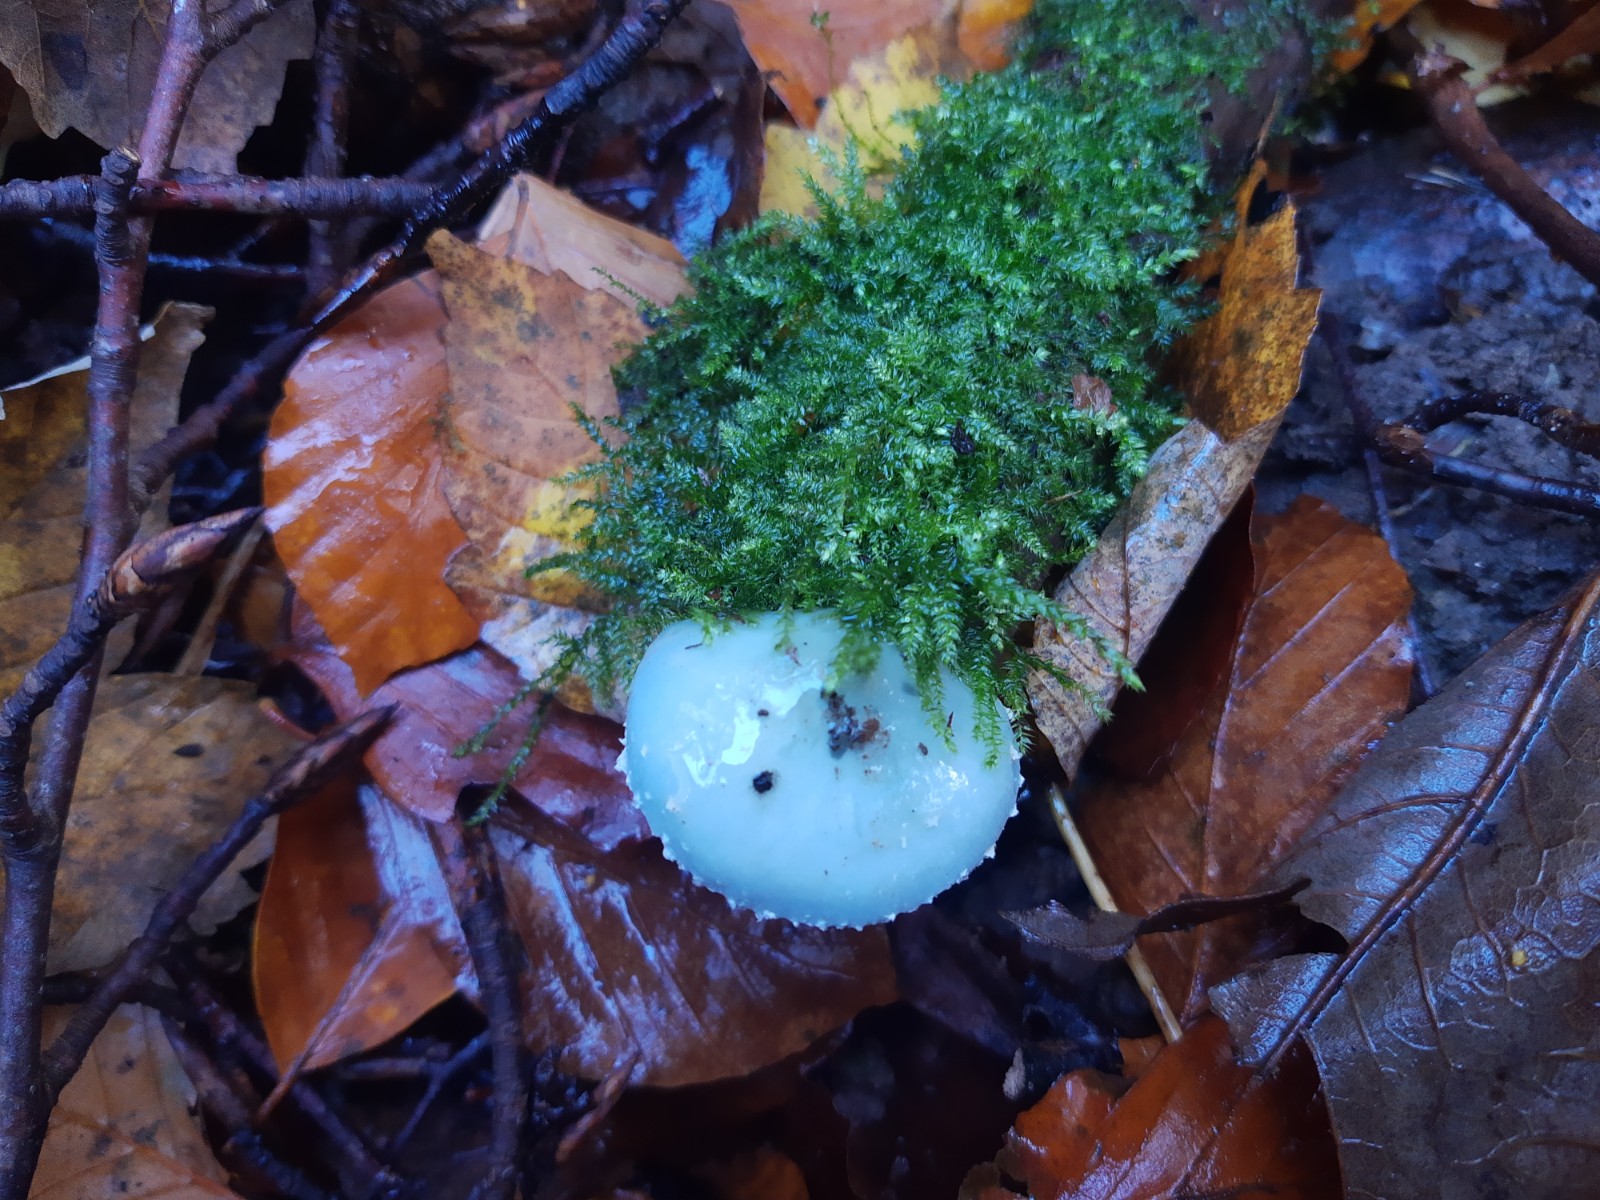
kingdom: Fungi
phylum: Basidiomycota
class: Agaricomycetes
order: Agaricales
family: Strophariaceae
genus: Stropharia
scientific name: Stropharia cyanea
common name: blågrøn bredblad
